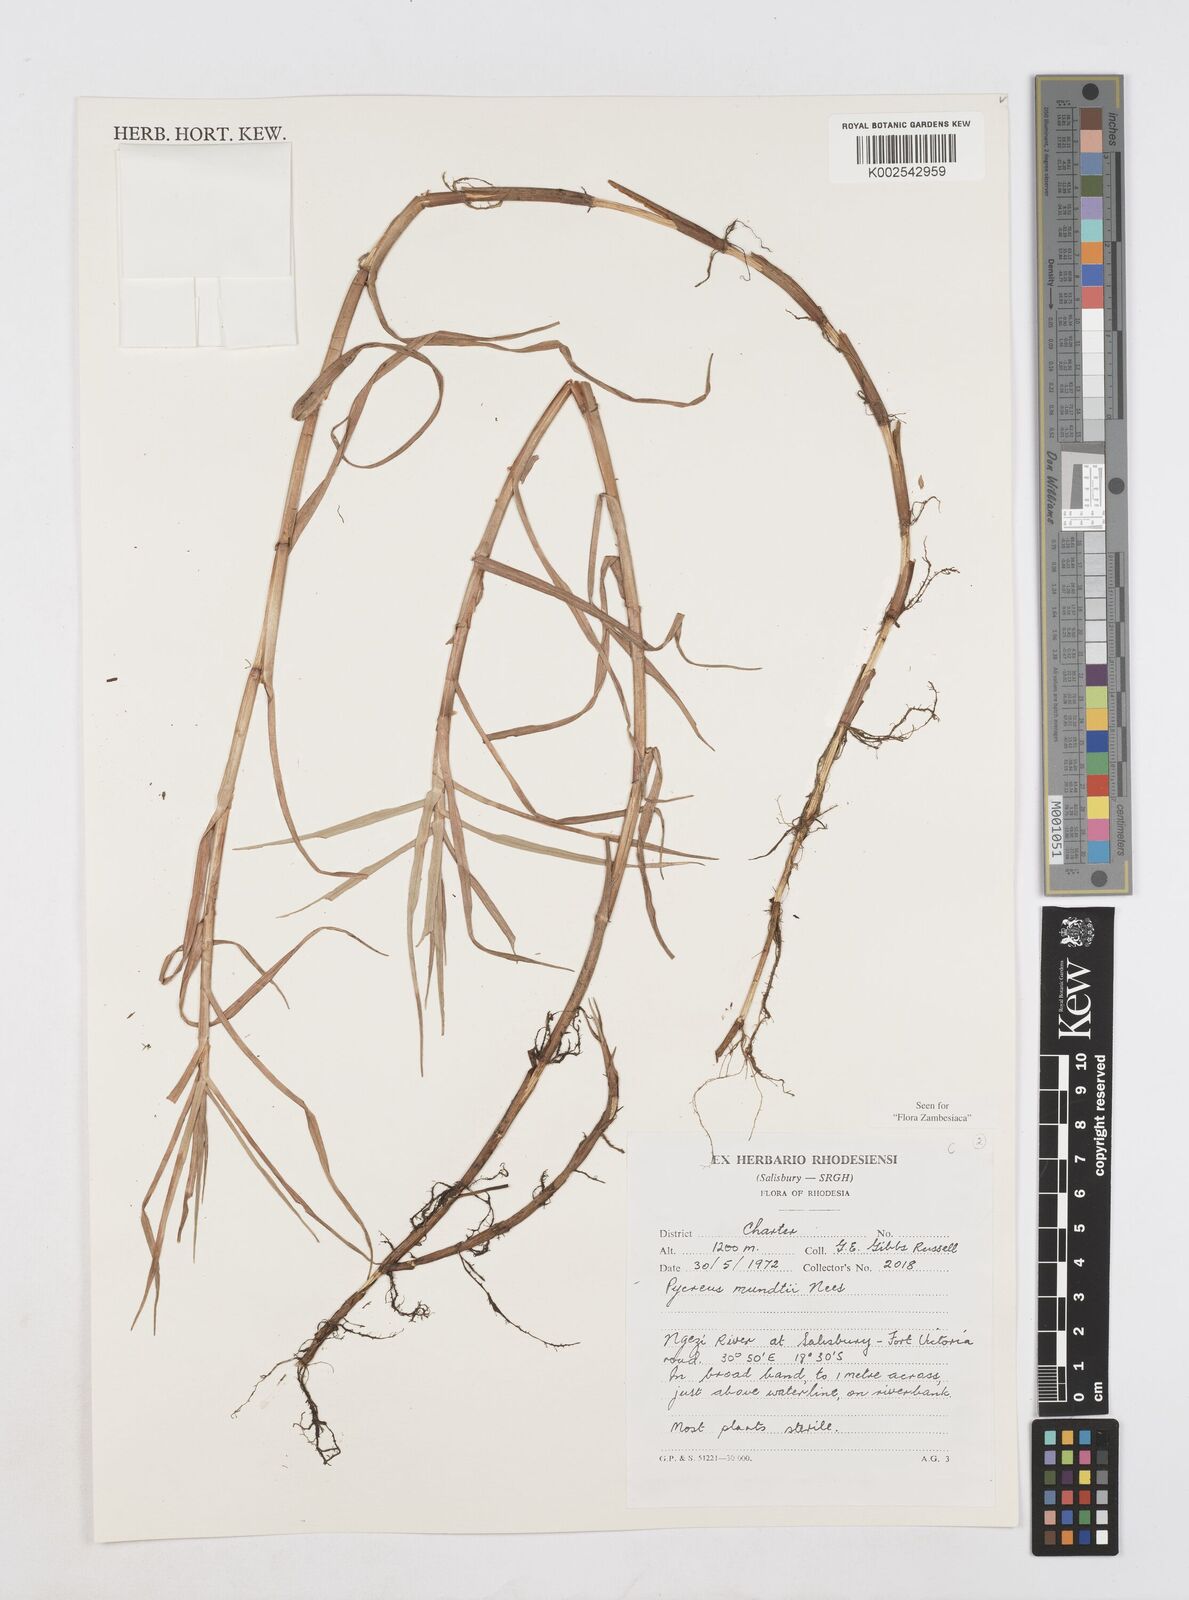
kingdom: Plantae
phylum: Tracheophyta
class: Liliopsida
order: Poales
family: Cyperaceae
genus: Cyperus
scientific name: Cyperus mundii
